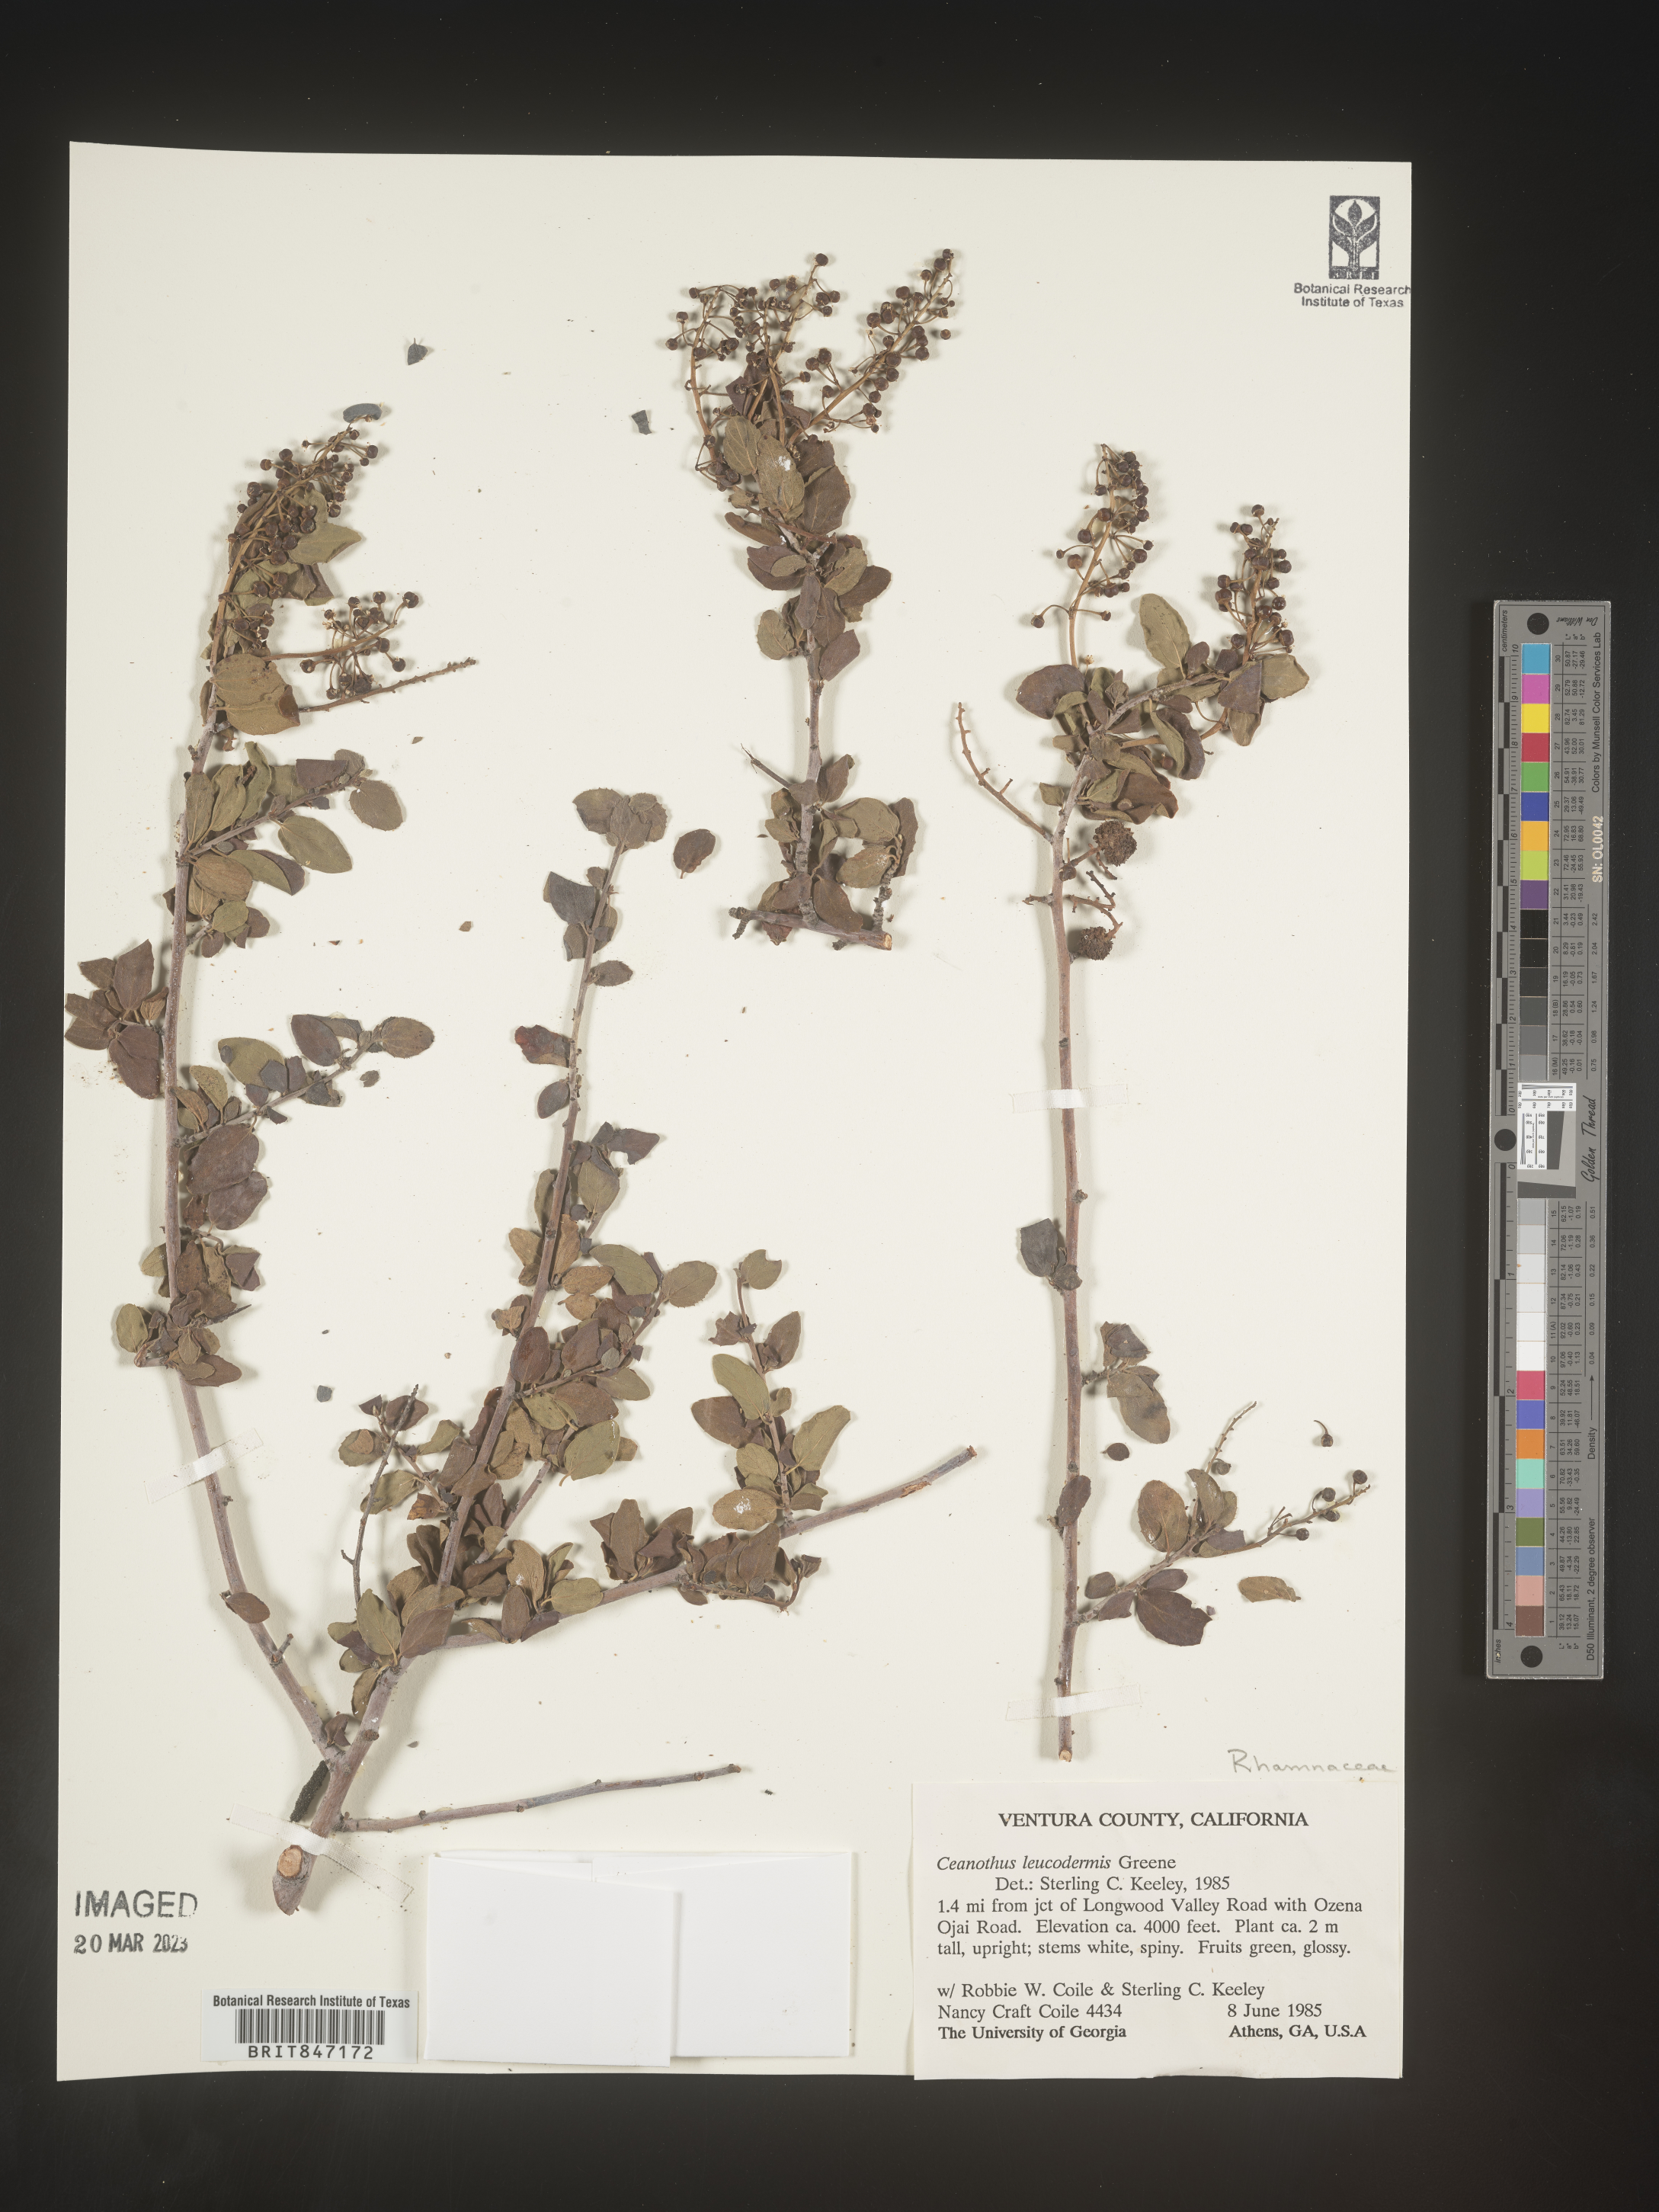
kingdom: Plantae
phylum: Tracheophyta
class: Magnoliopsida
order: Rosales
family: Rhamnaceae
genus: Ceanothus
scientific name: Ceanothus
